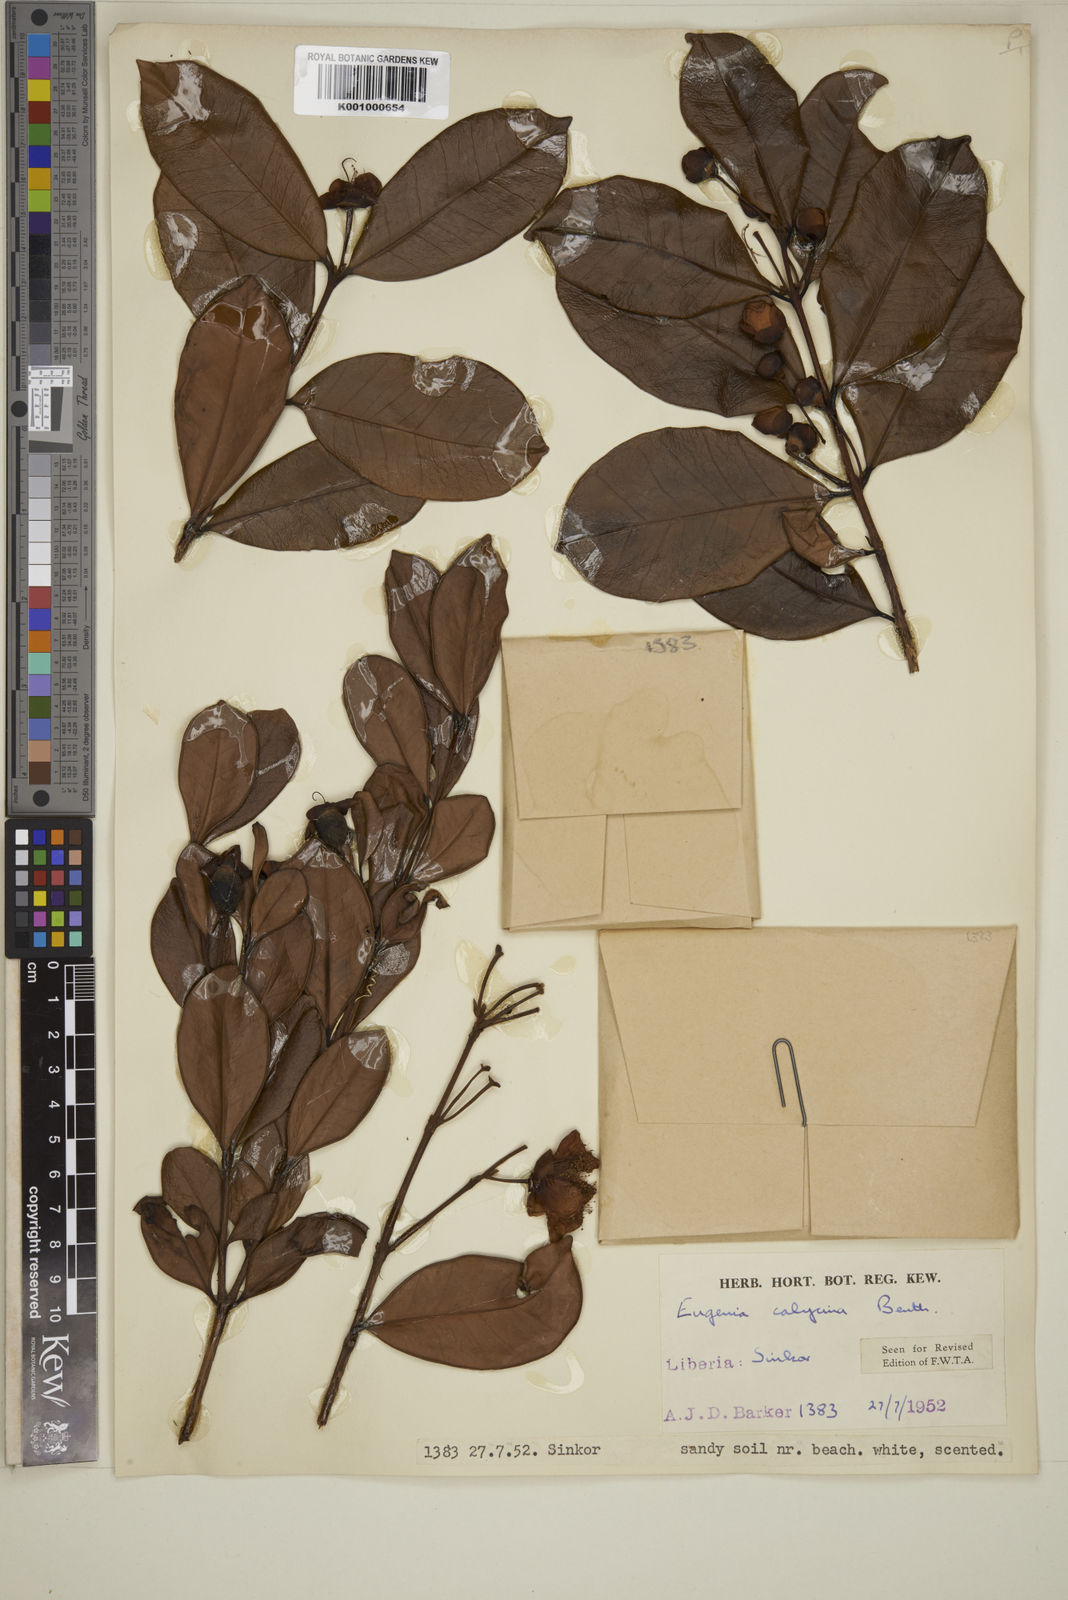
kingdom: Plantae
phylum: Tracheophyta
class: Magnoliopsida
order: Myrtales
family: Myrtaceae
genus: Eugenia
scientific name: Eugenia liberiana
